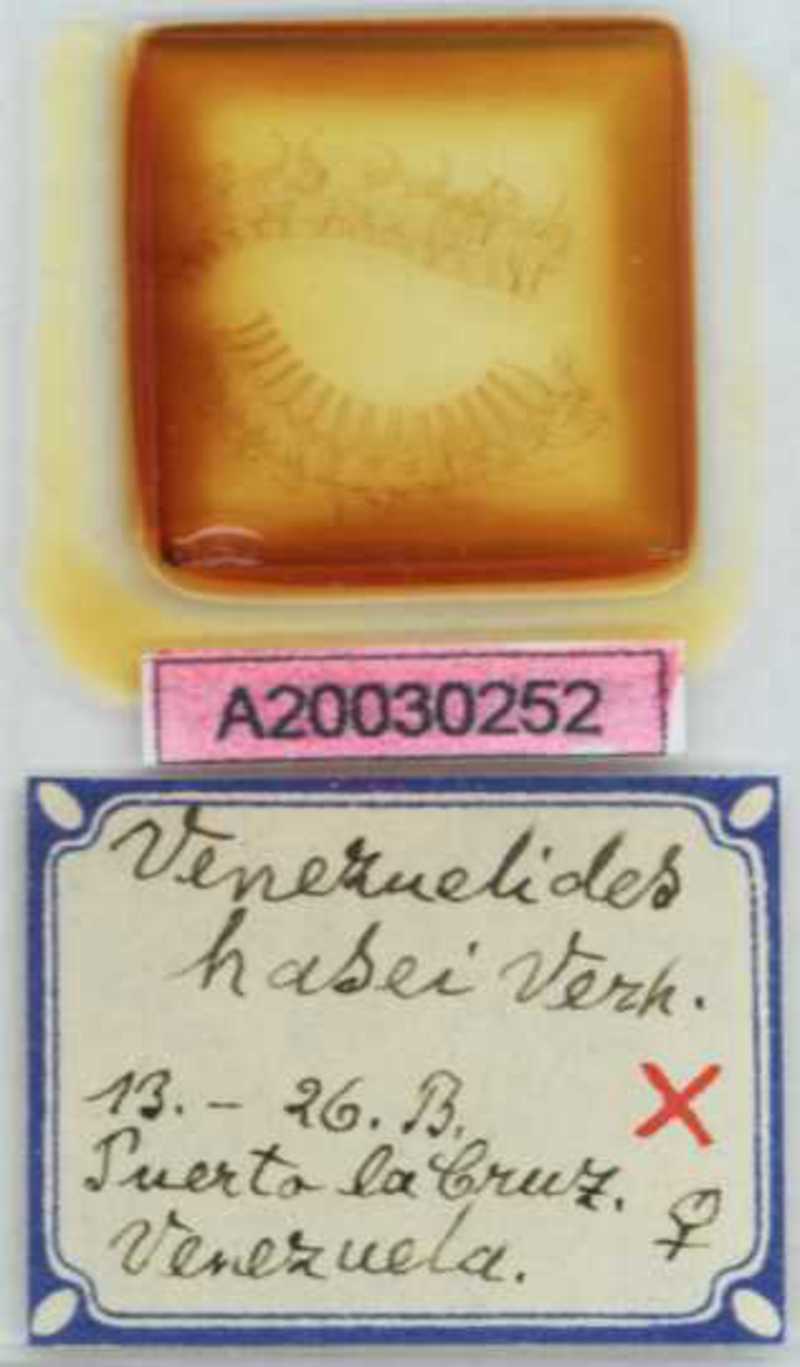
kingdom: Animalia
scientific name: Animalia
